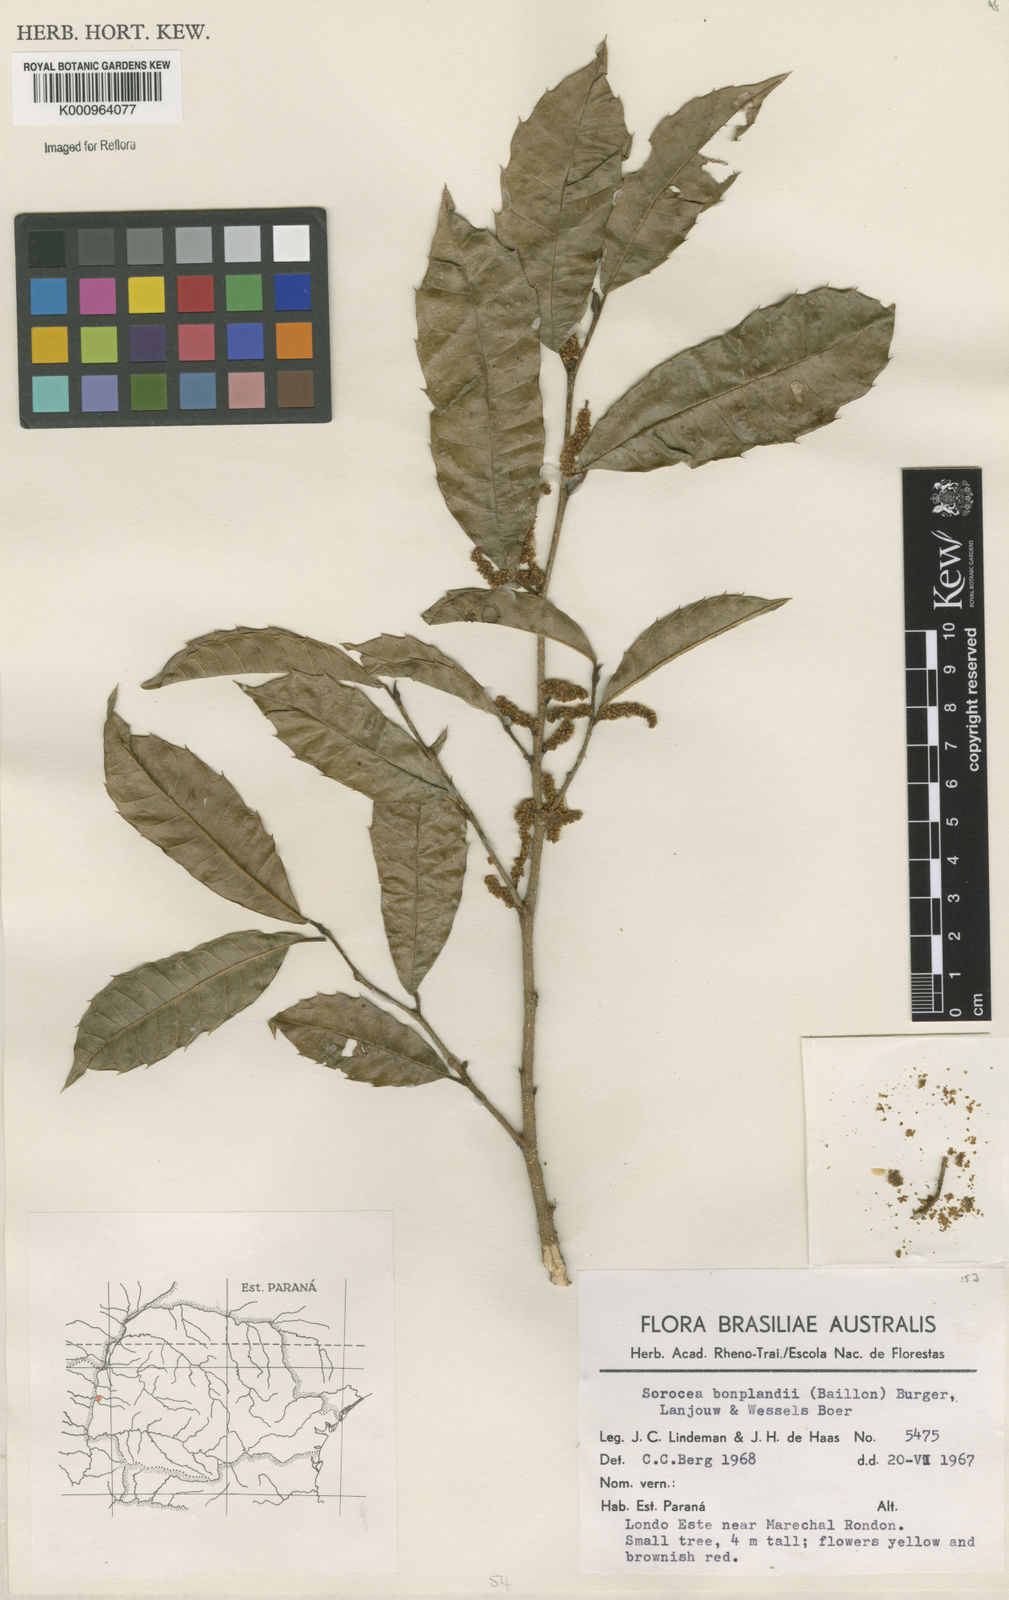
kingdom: Plantae
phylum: Tracheophyta
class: Magnoliopsida
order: Rosales
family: Moraceae
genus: Sorocea
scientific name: Sorocea
